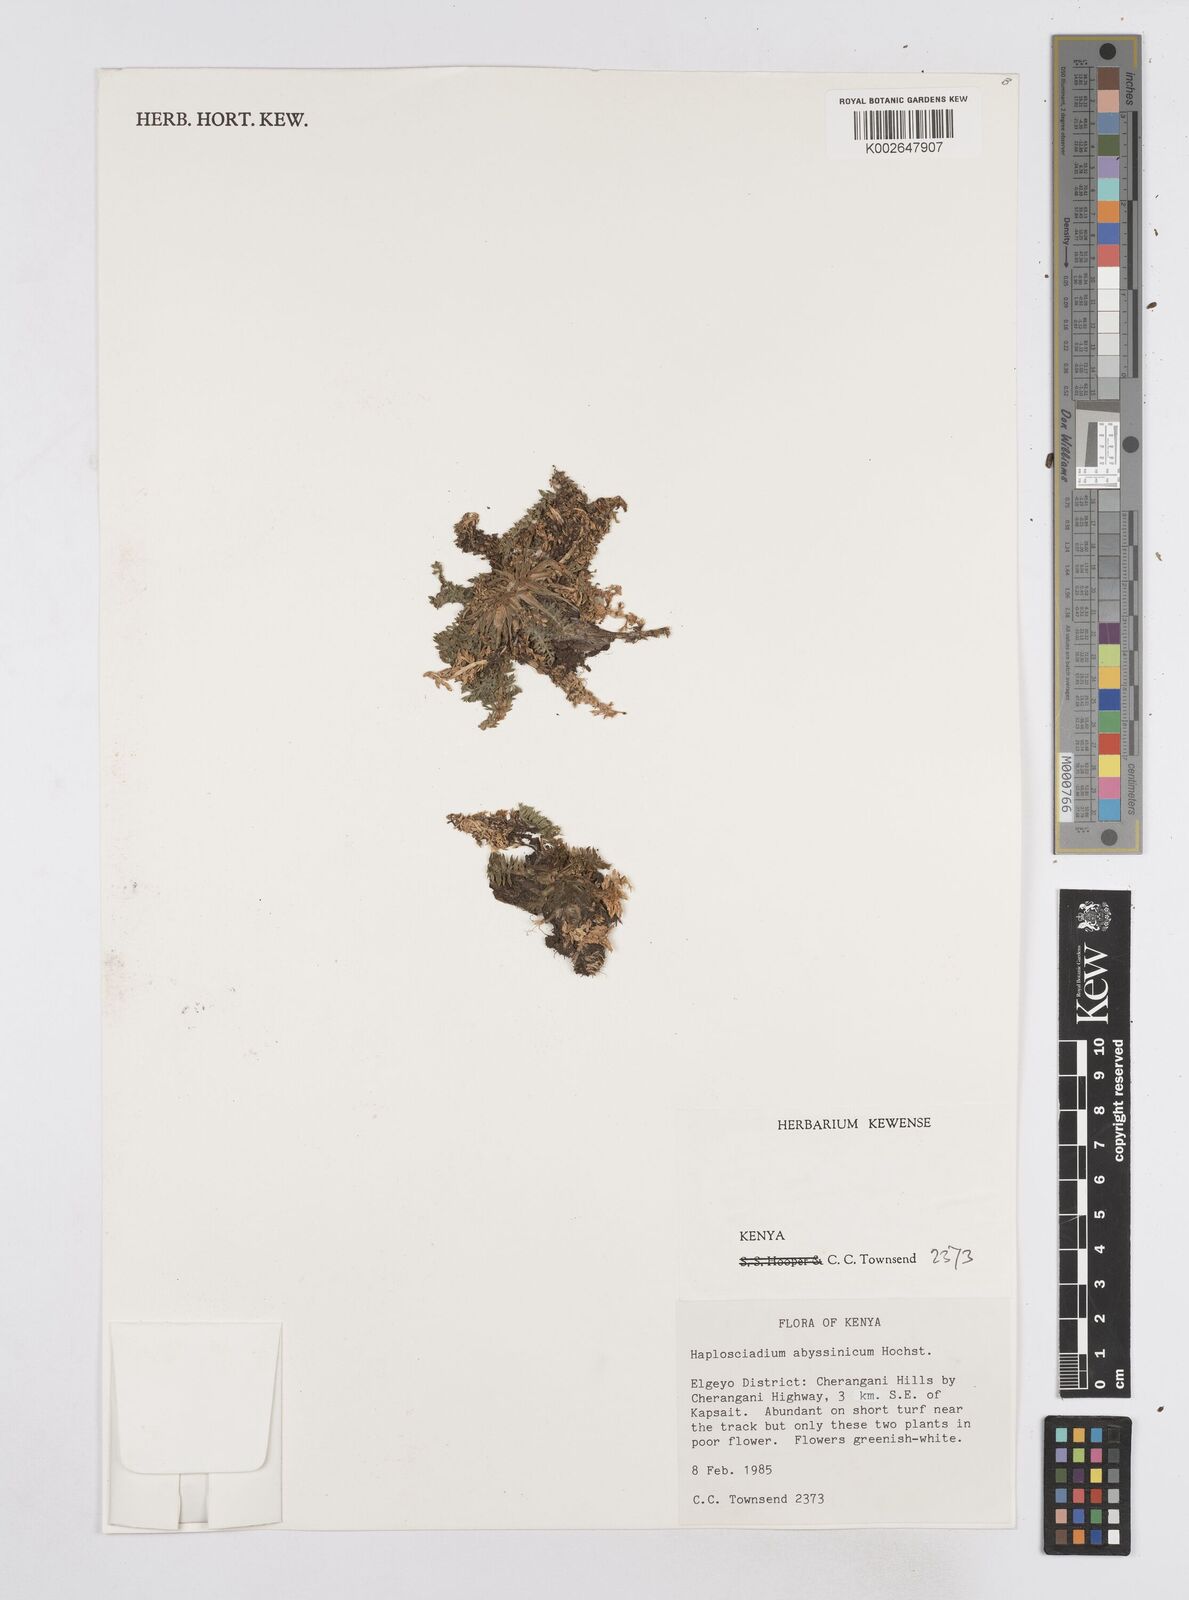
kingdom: Plantae
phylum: Tracheophyta
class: Magnoliopsida
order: Apiales
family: Apiaceae
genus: Haplosciadium
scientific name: Haplosciadium abyssinicum
